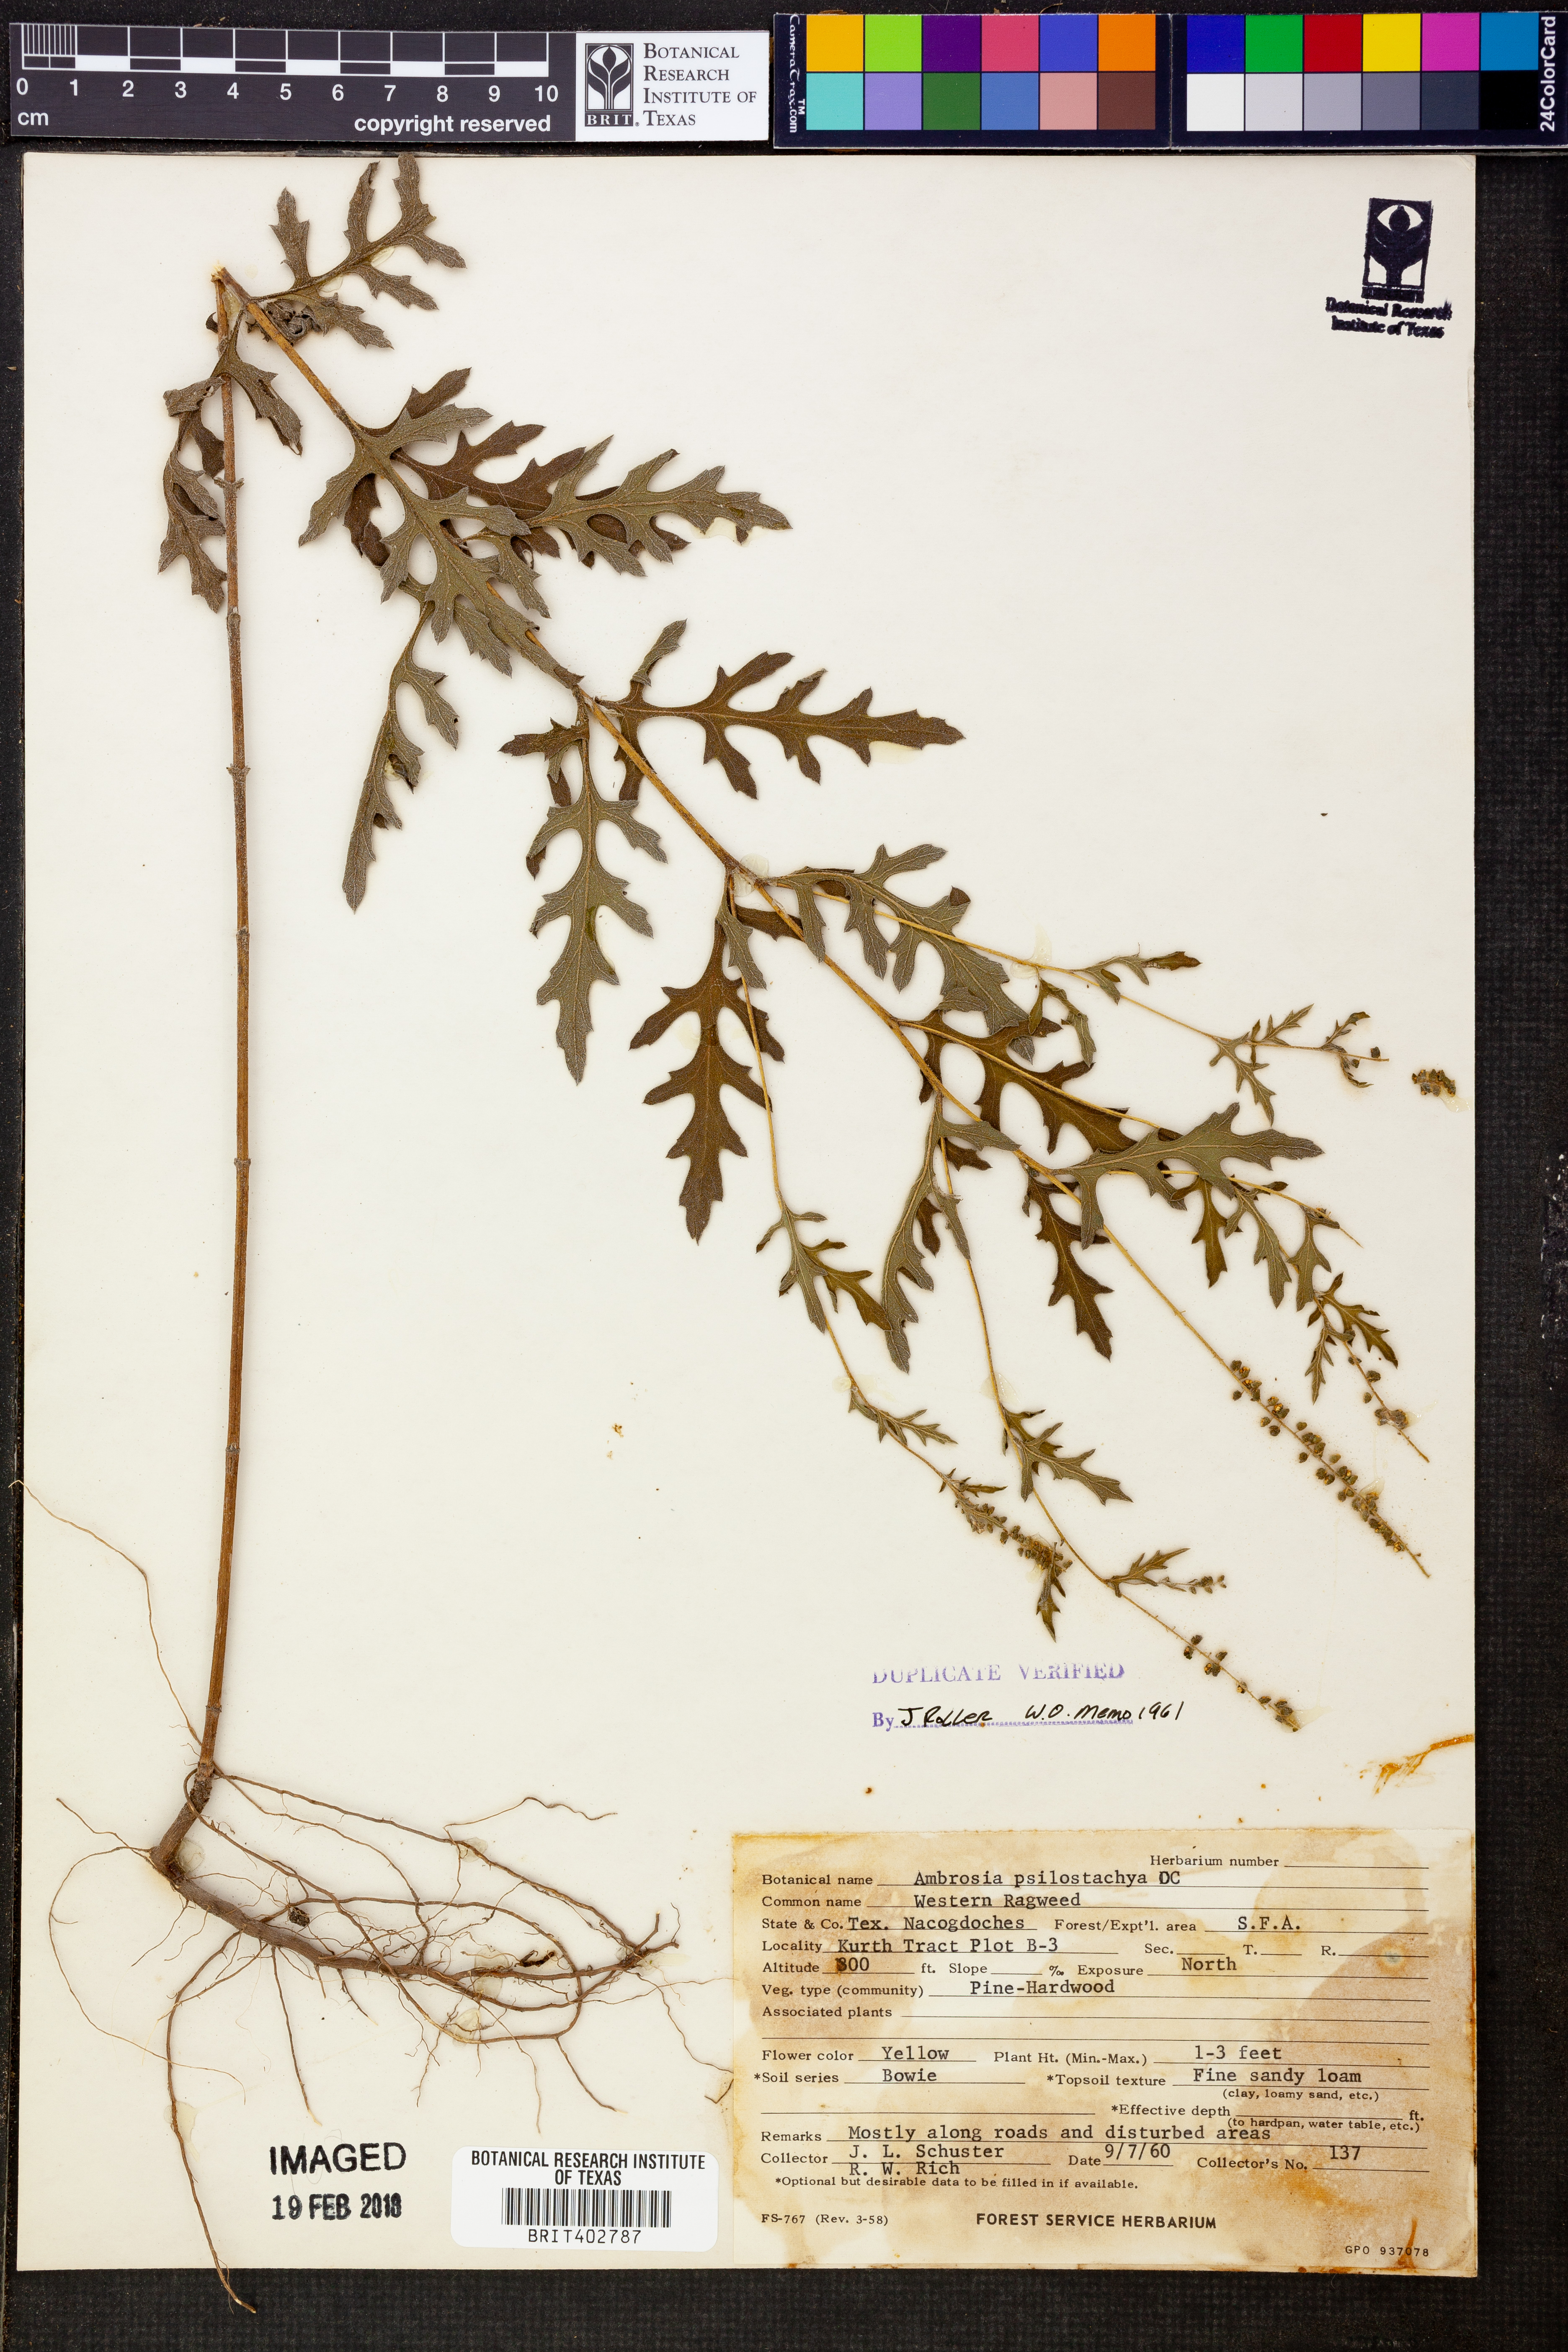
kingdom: Plantae
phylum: Tracheophyta
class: Magnoliopsida
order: Asterales
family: Asteraceae
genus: Ambrosia
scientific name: Ambrosia psilostachya
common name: Perennial ragweed
